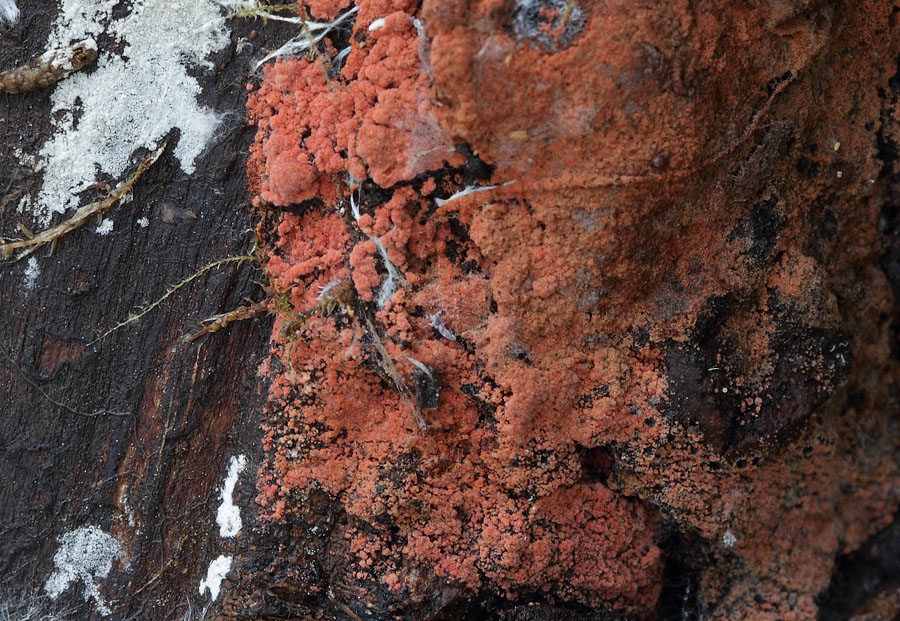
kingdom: Fungi
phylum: Basidiomycota
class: Agaricomycetes
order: Thelephorales
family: Thelephoraceae
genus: Tomentella
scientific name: Tomentella lateritia
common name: teglrød frynsehinde
